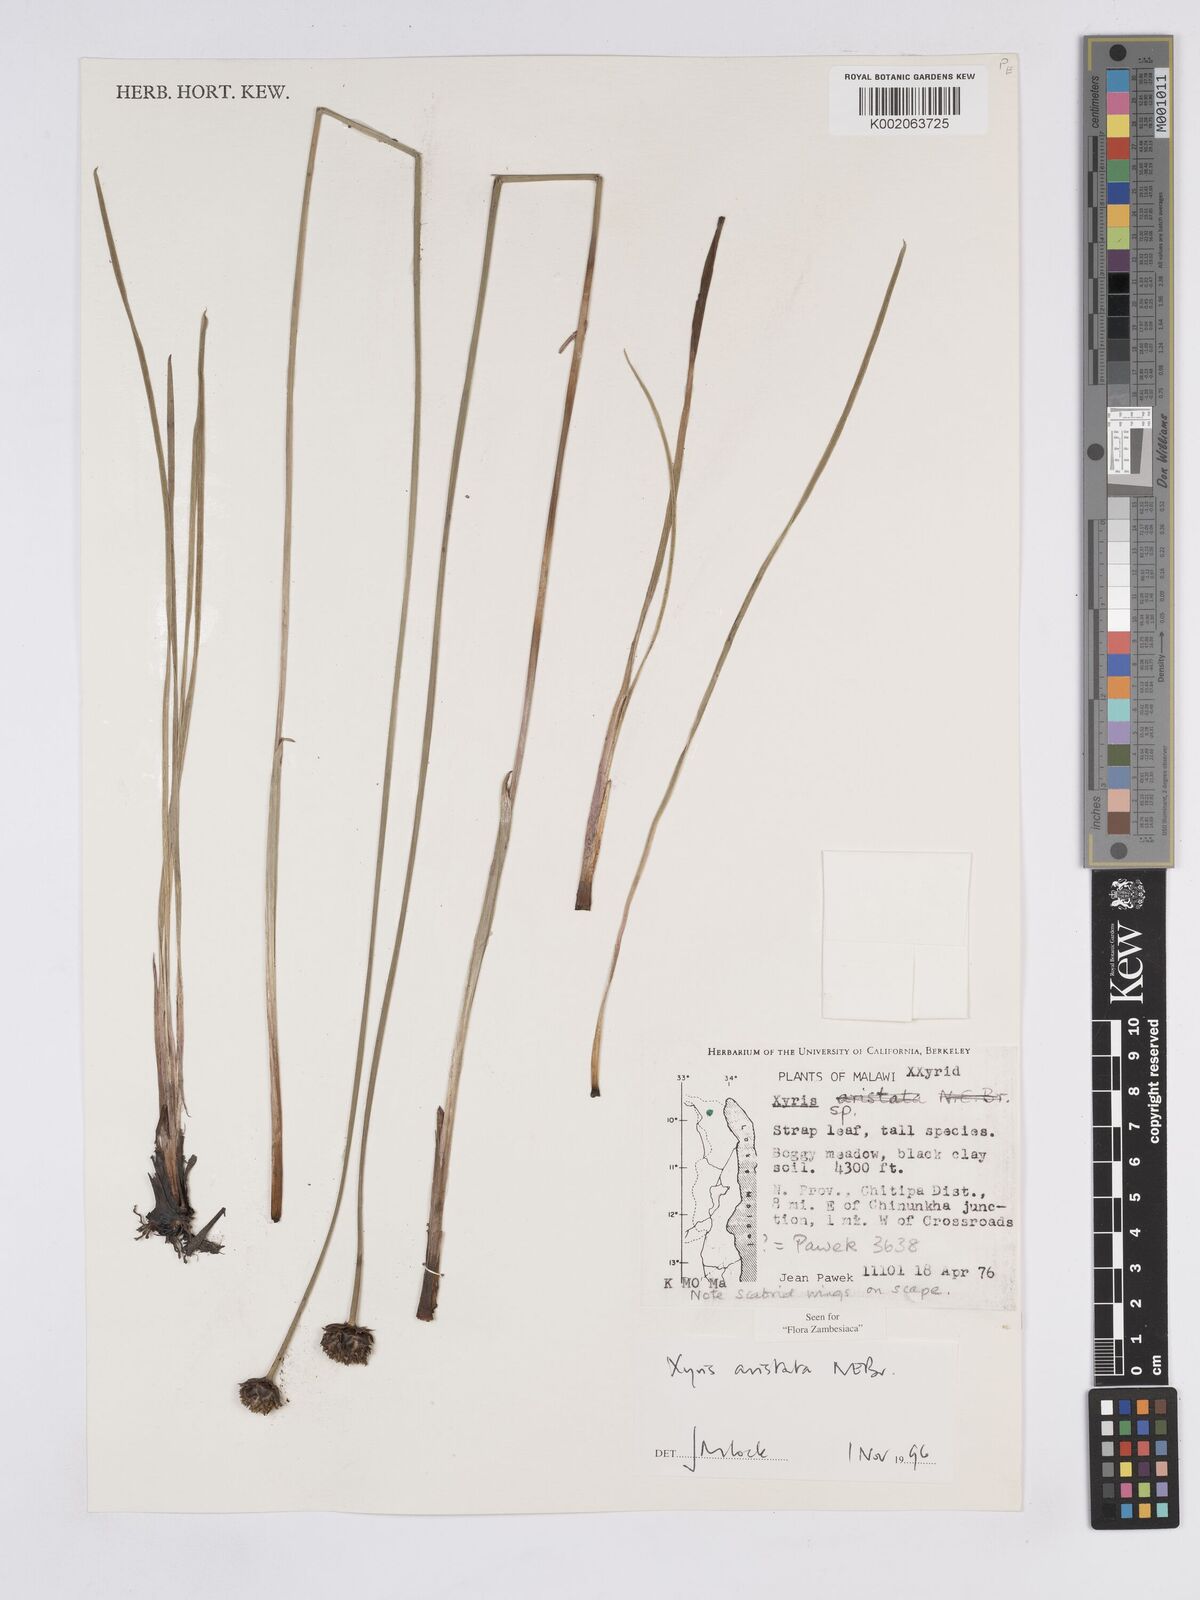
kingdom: Plantae
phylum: Tracheophyta
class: Liliopsida
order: Poales
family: Xyridaceae
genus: Xyris
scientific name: Xyris aristata
